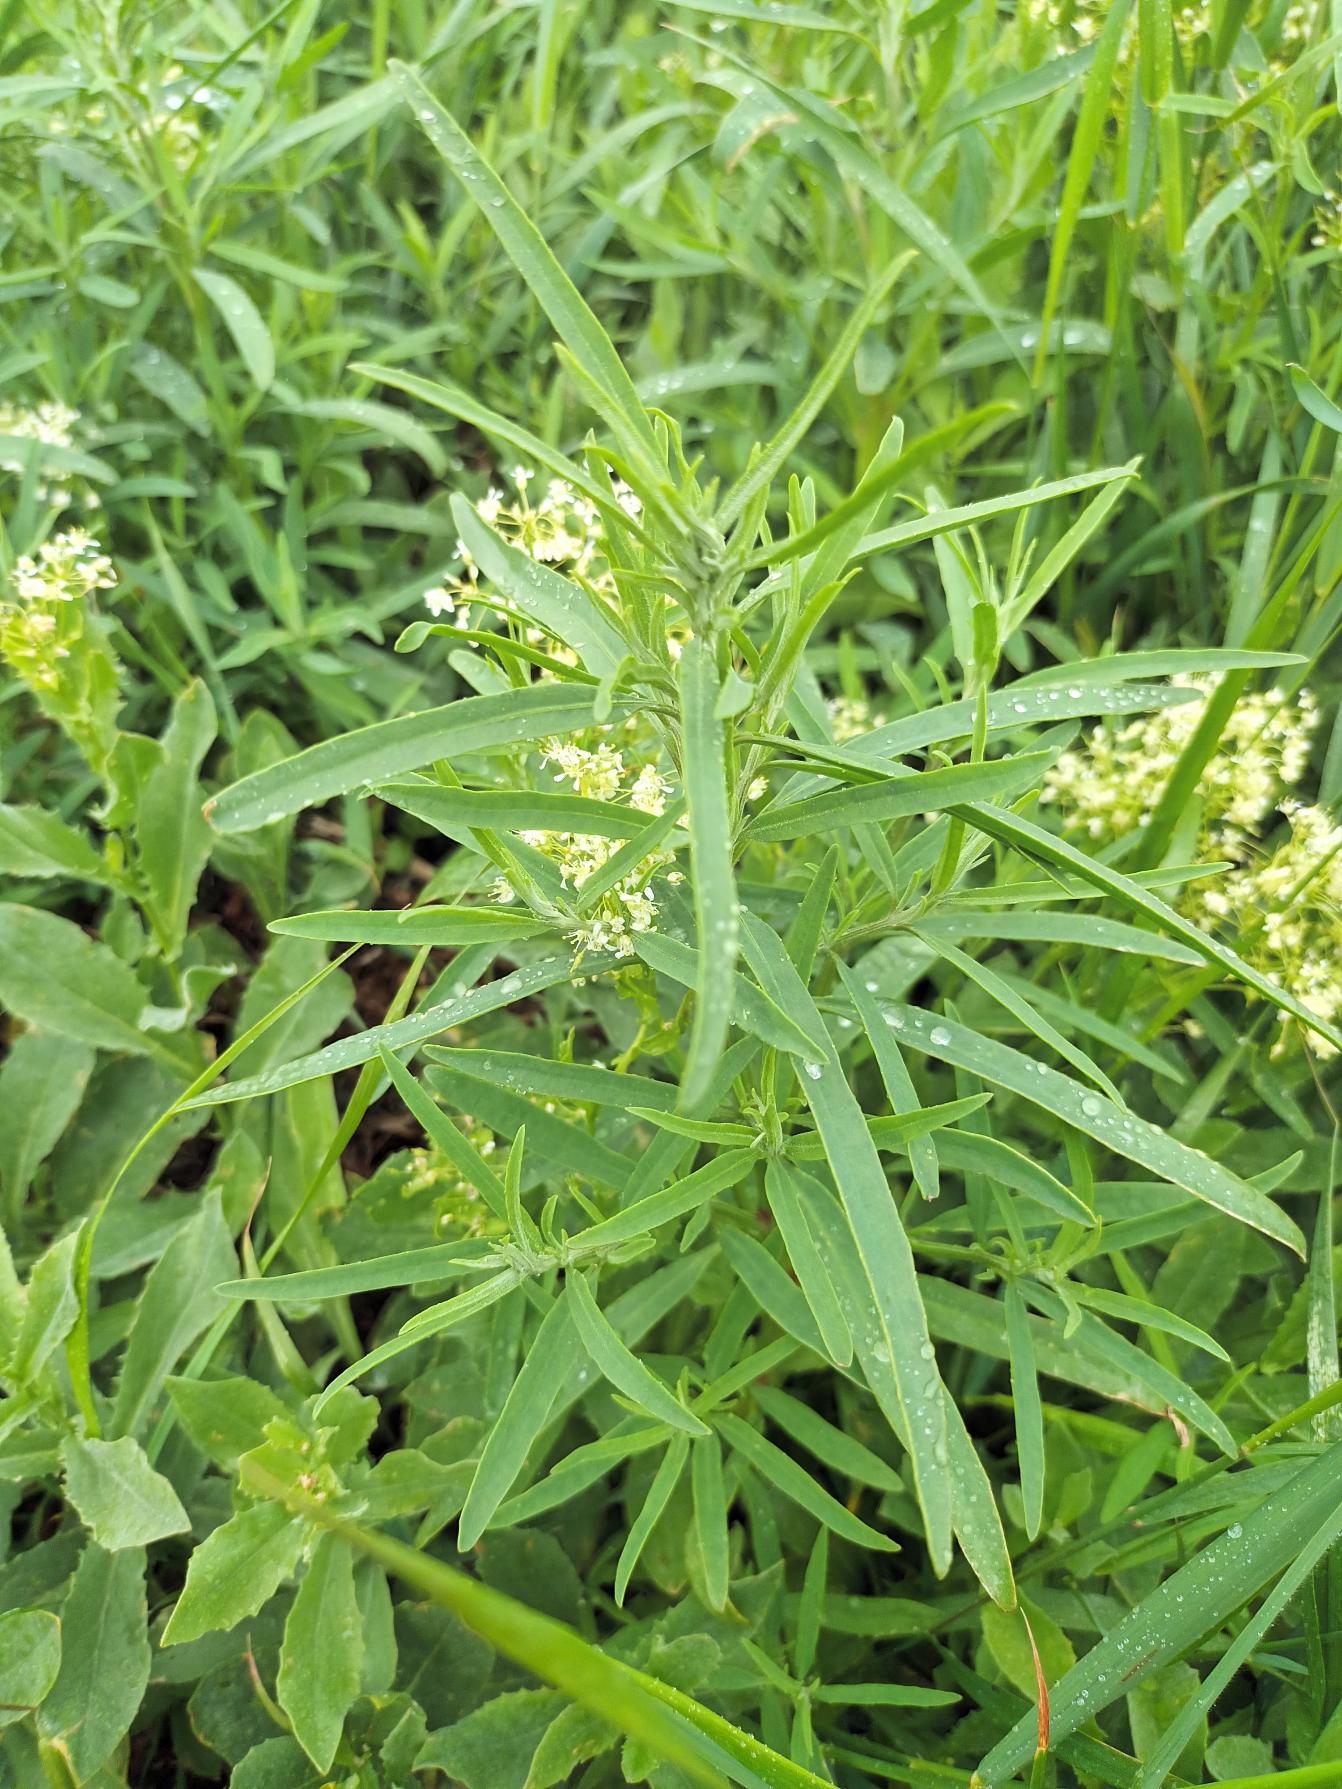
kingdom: Plantae
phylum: Tracheophyta
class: Magnoliopsida
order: Caryophyllales
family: Amaranthaceae
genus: Atriplex
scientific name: Atriplex littoralis
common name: Strand-mælde
